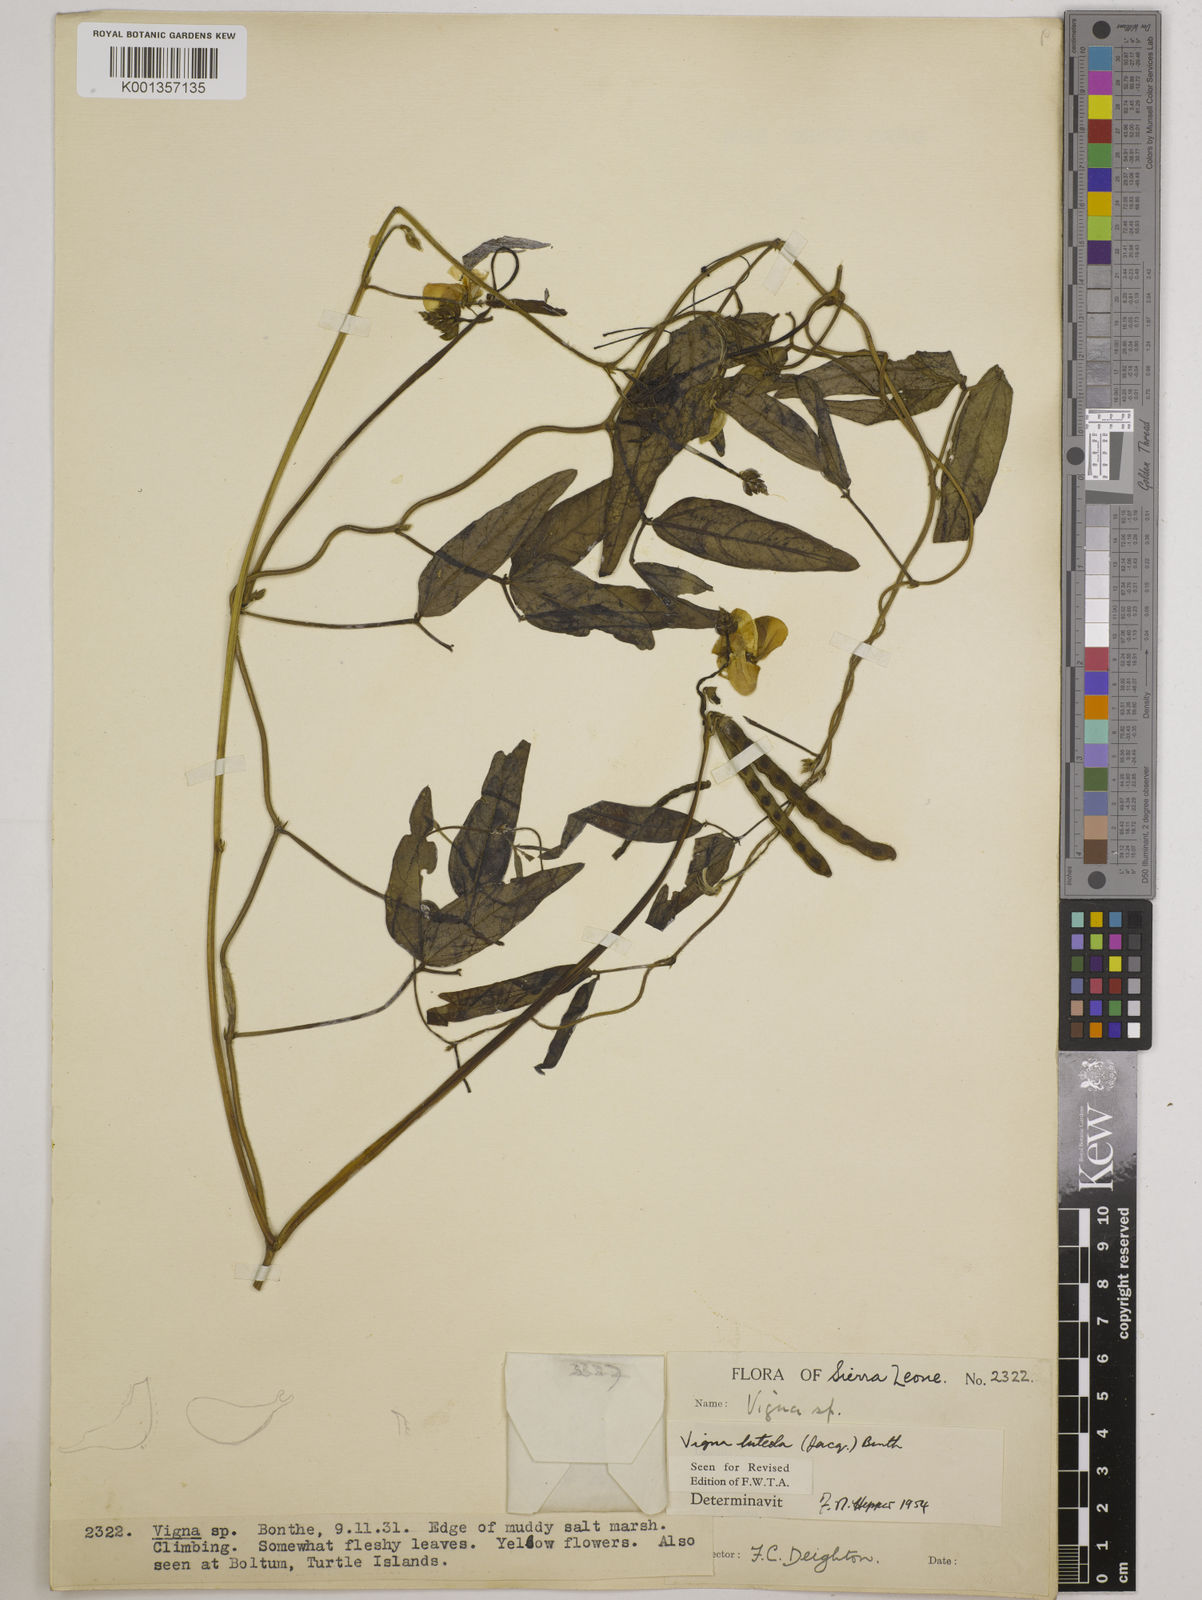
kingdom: Plantae
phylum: Tracheophyta
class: Magnoliopsida
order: Fabales
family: Fabaceae
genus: Vigna
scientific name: Vigna luteola
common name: Hairypod cowpea
